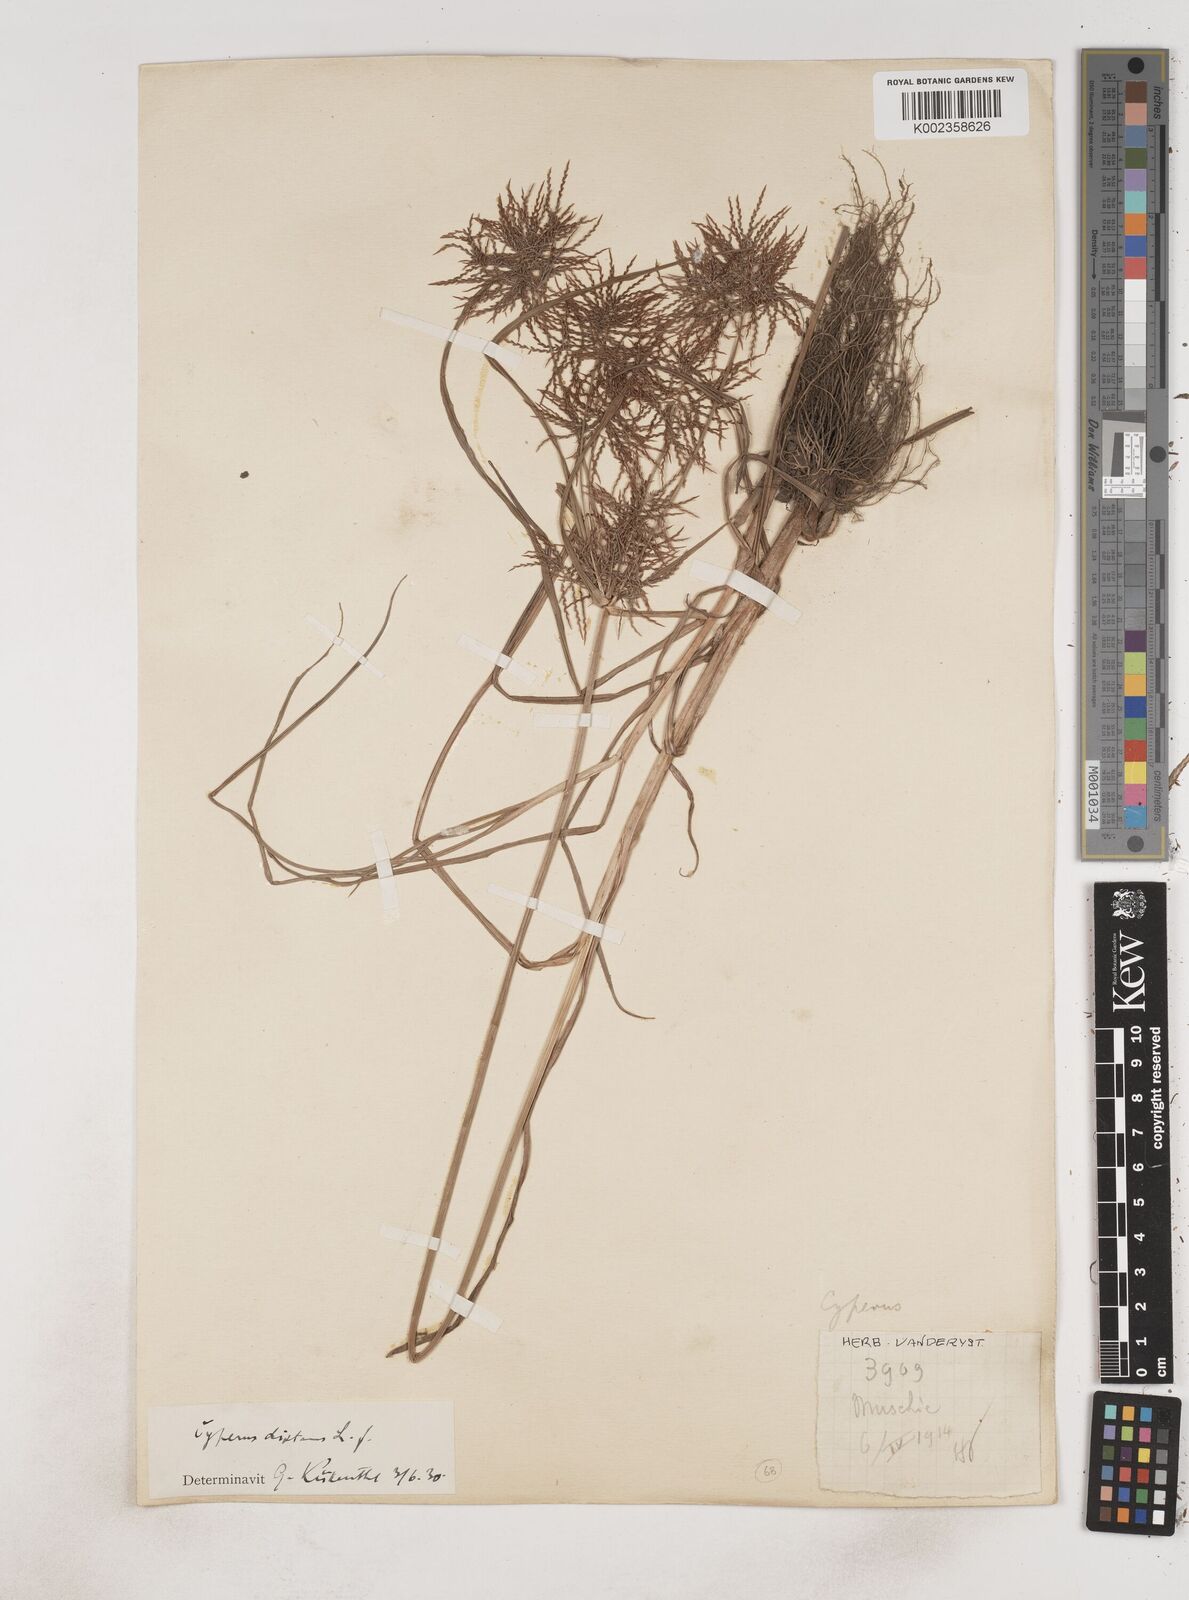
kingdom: Plantae
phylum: Tracheophyta
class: Liliopsida
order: Poales
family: Cyperaceae
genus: Cyperus
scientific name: Cyperus distans
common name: Slender cyperus
